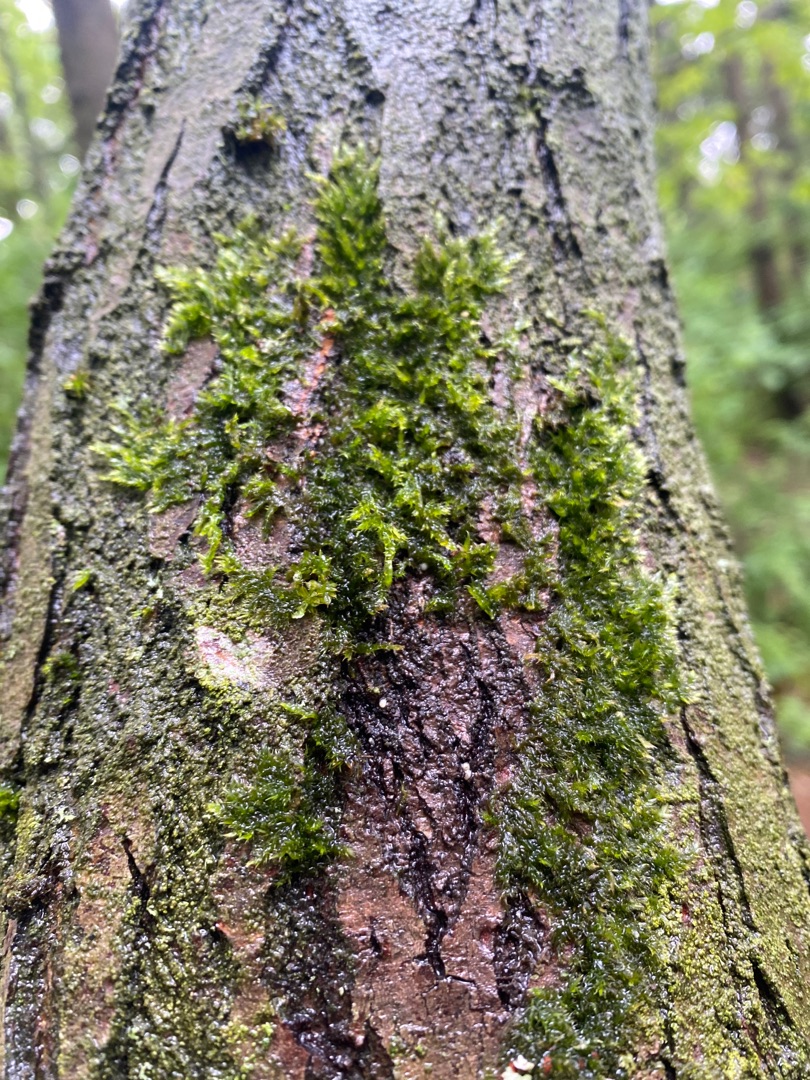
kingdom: Plantae
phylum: Bryophyta
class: Bryopsida
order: Hypnales
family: Hypnaceae
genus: Hypnum
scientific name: Hypnum
